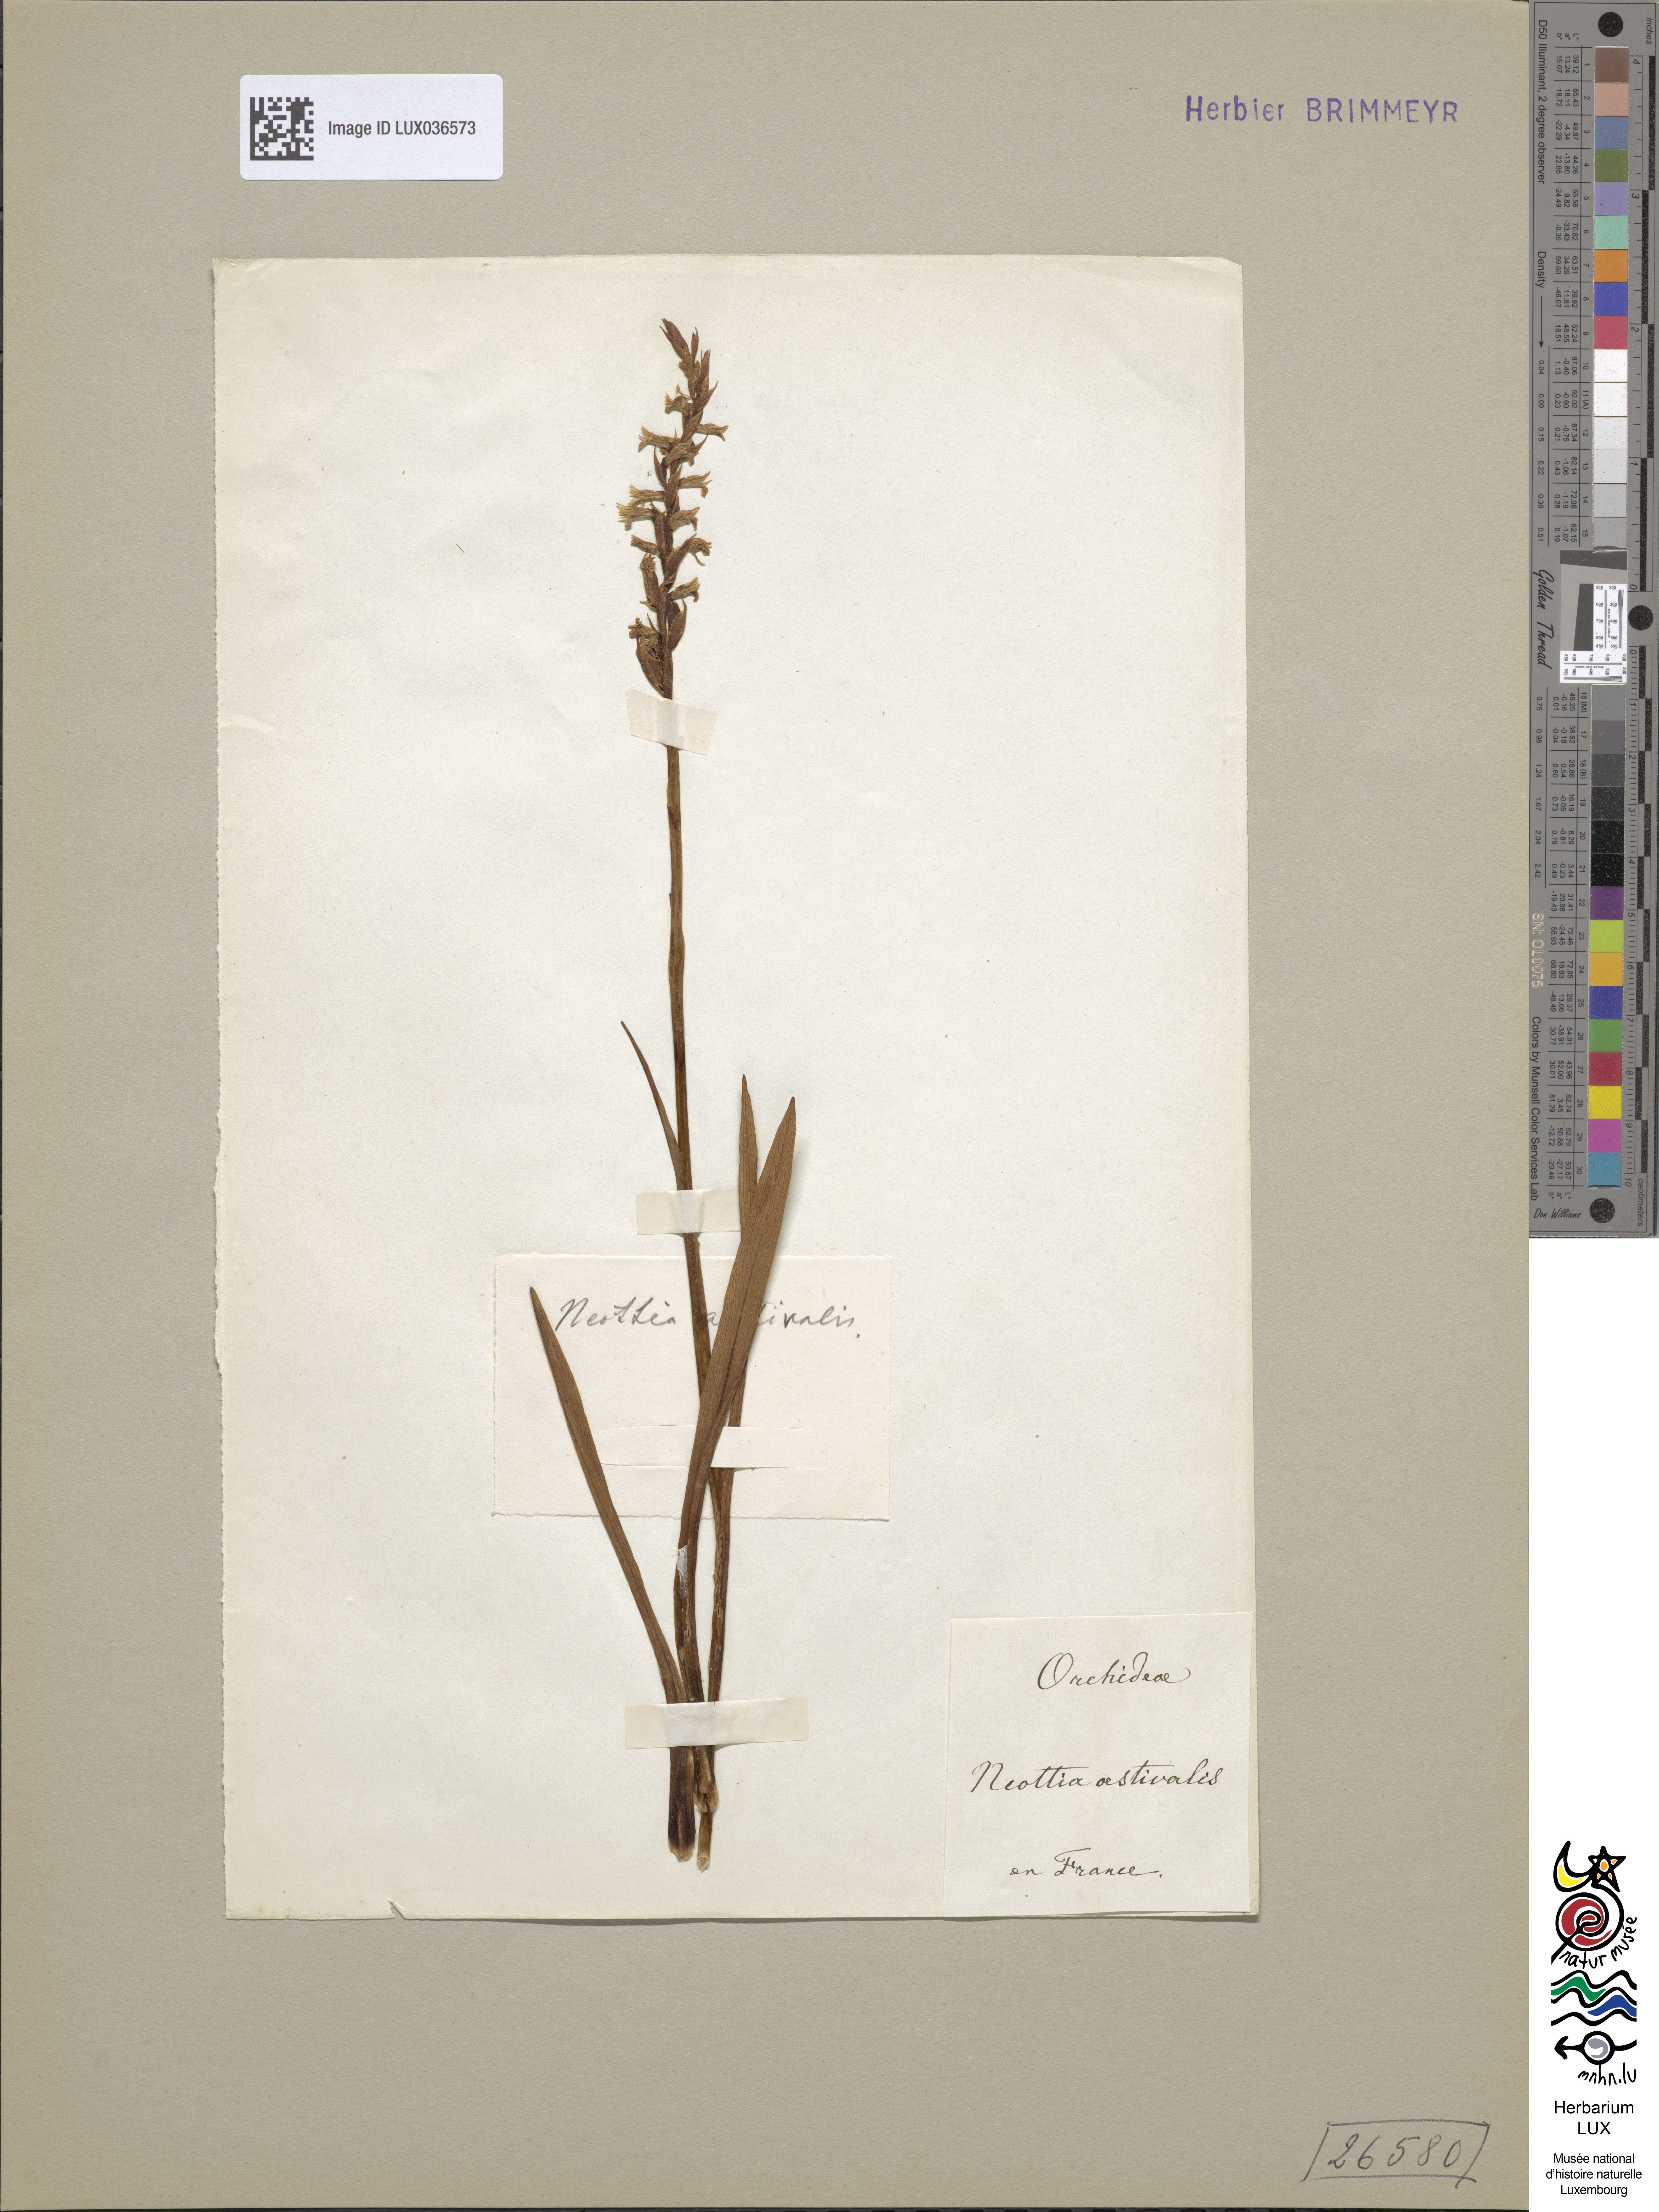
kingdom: Plantae
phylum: Tracheophyta
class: Liliopsida
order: Asparagales
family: Orchidaceae
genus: Spiranthes
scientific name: Spiranthes aestivalis
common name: Summer lady's-tresses
